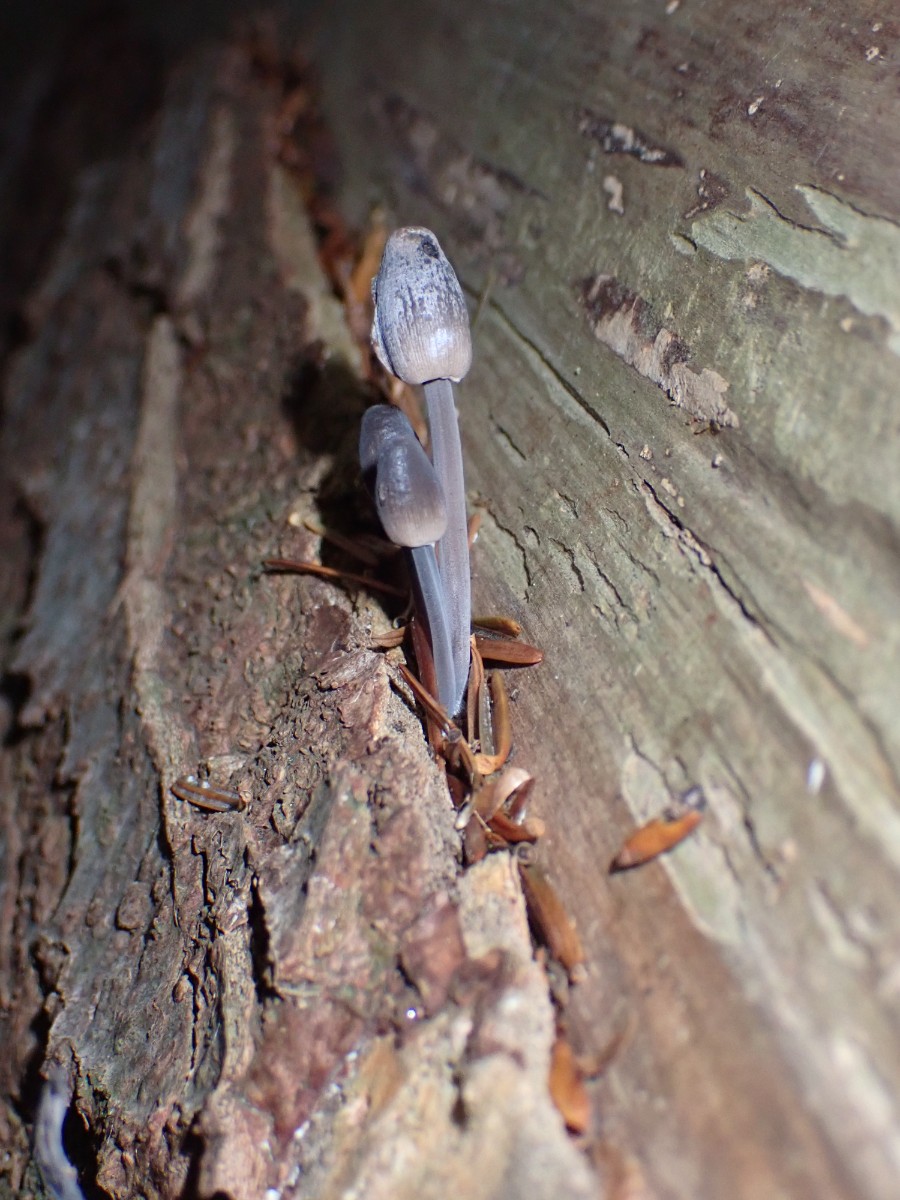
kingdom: Fungi
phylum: Basidiomycota
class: Agaricomycetes
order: Agaricales
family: Mycenaceae
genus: Mycena
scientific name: Mycena
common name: huesvamp
